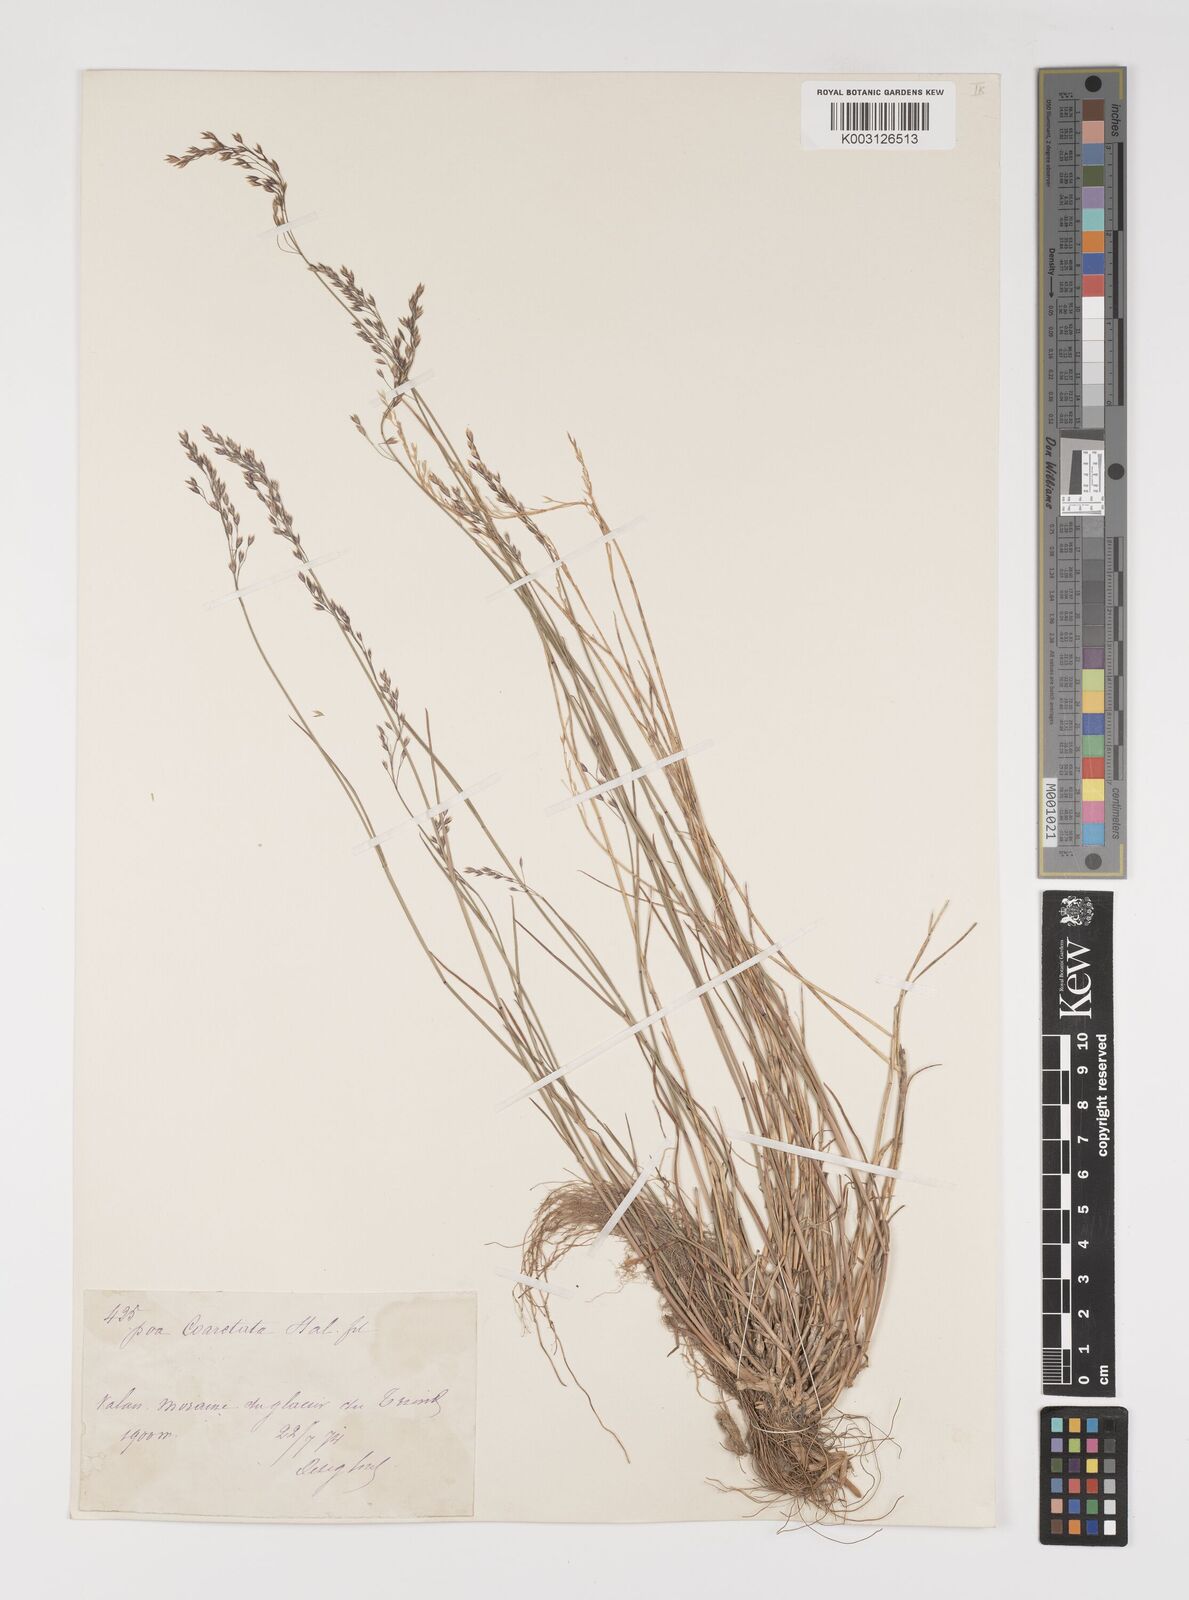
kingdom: Plantae
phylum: Tracheophyta
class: Liliopsida
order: Poales
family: Poaceae
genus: Poa
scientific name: Poa nemoralis
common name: Wood bluegrass
